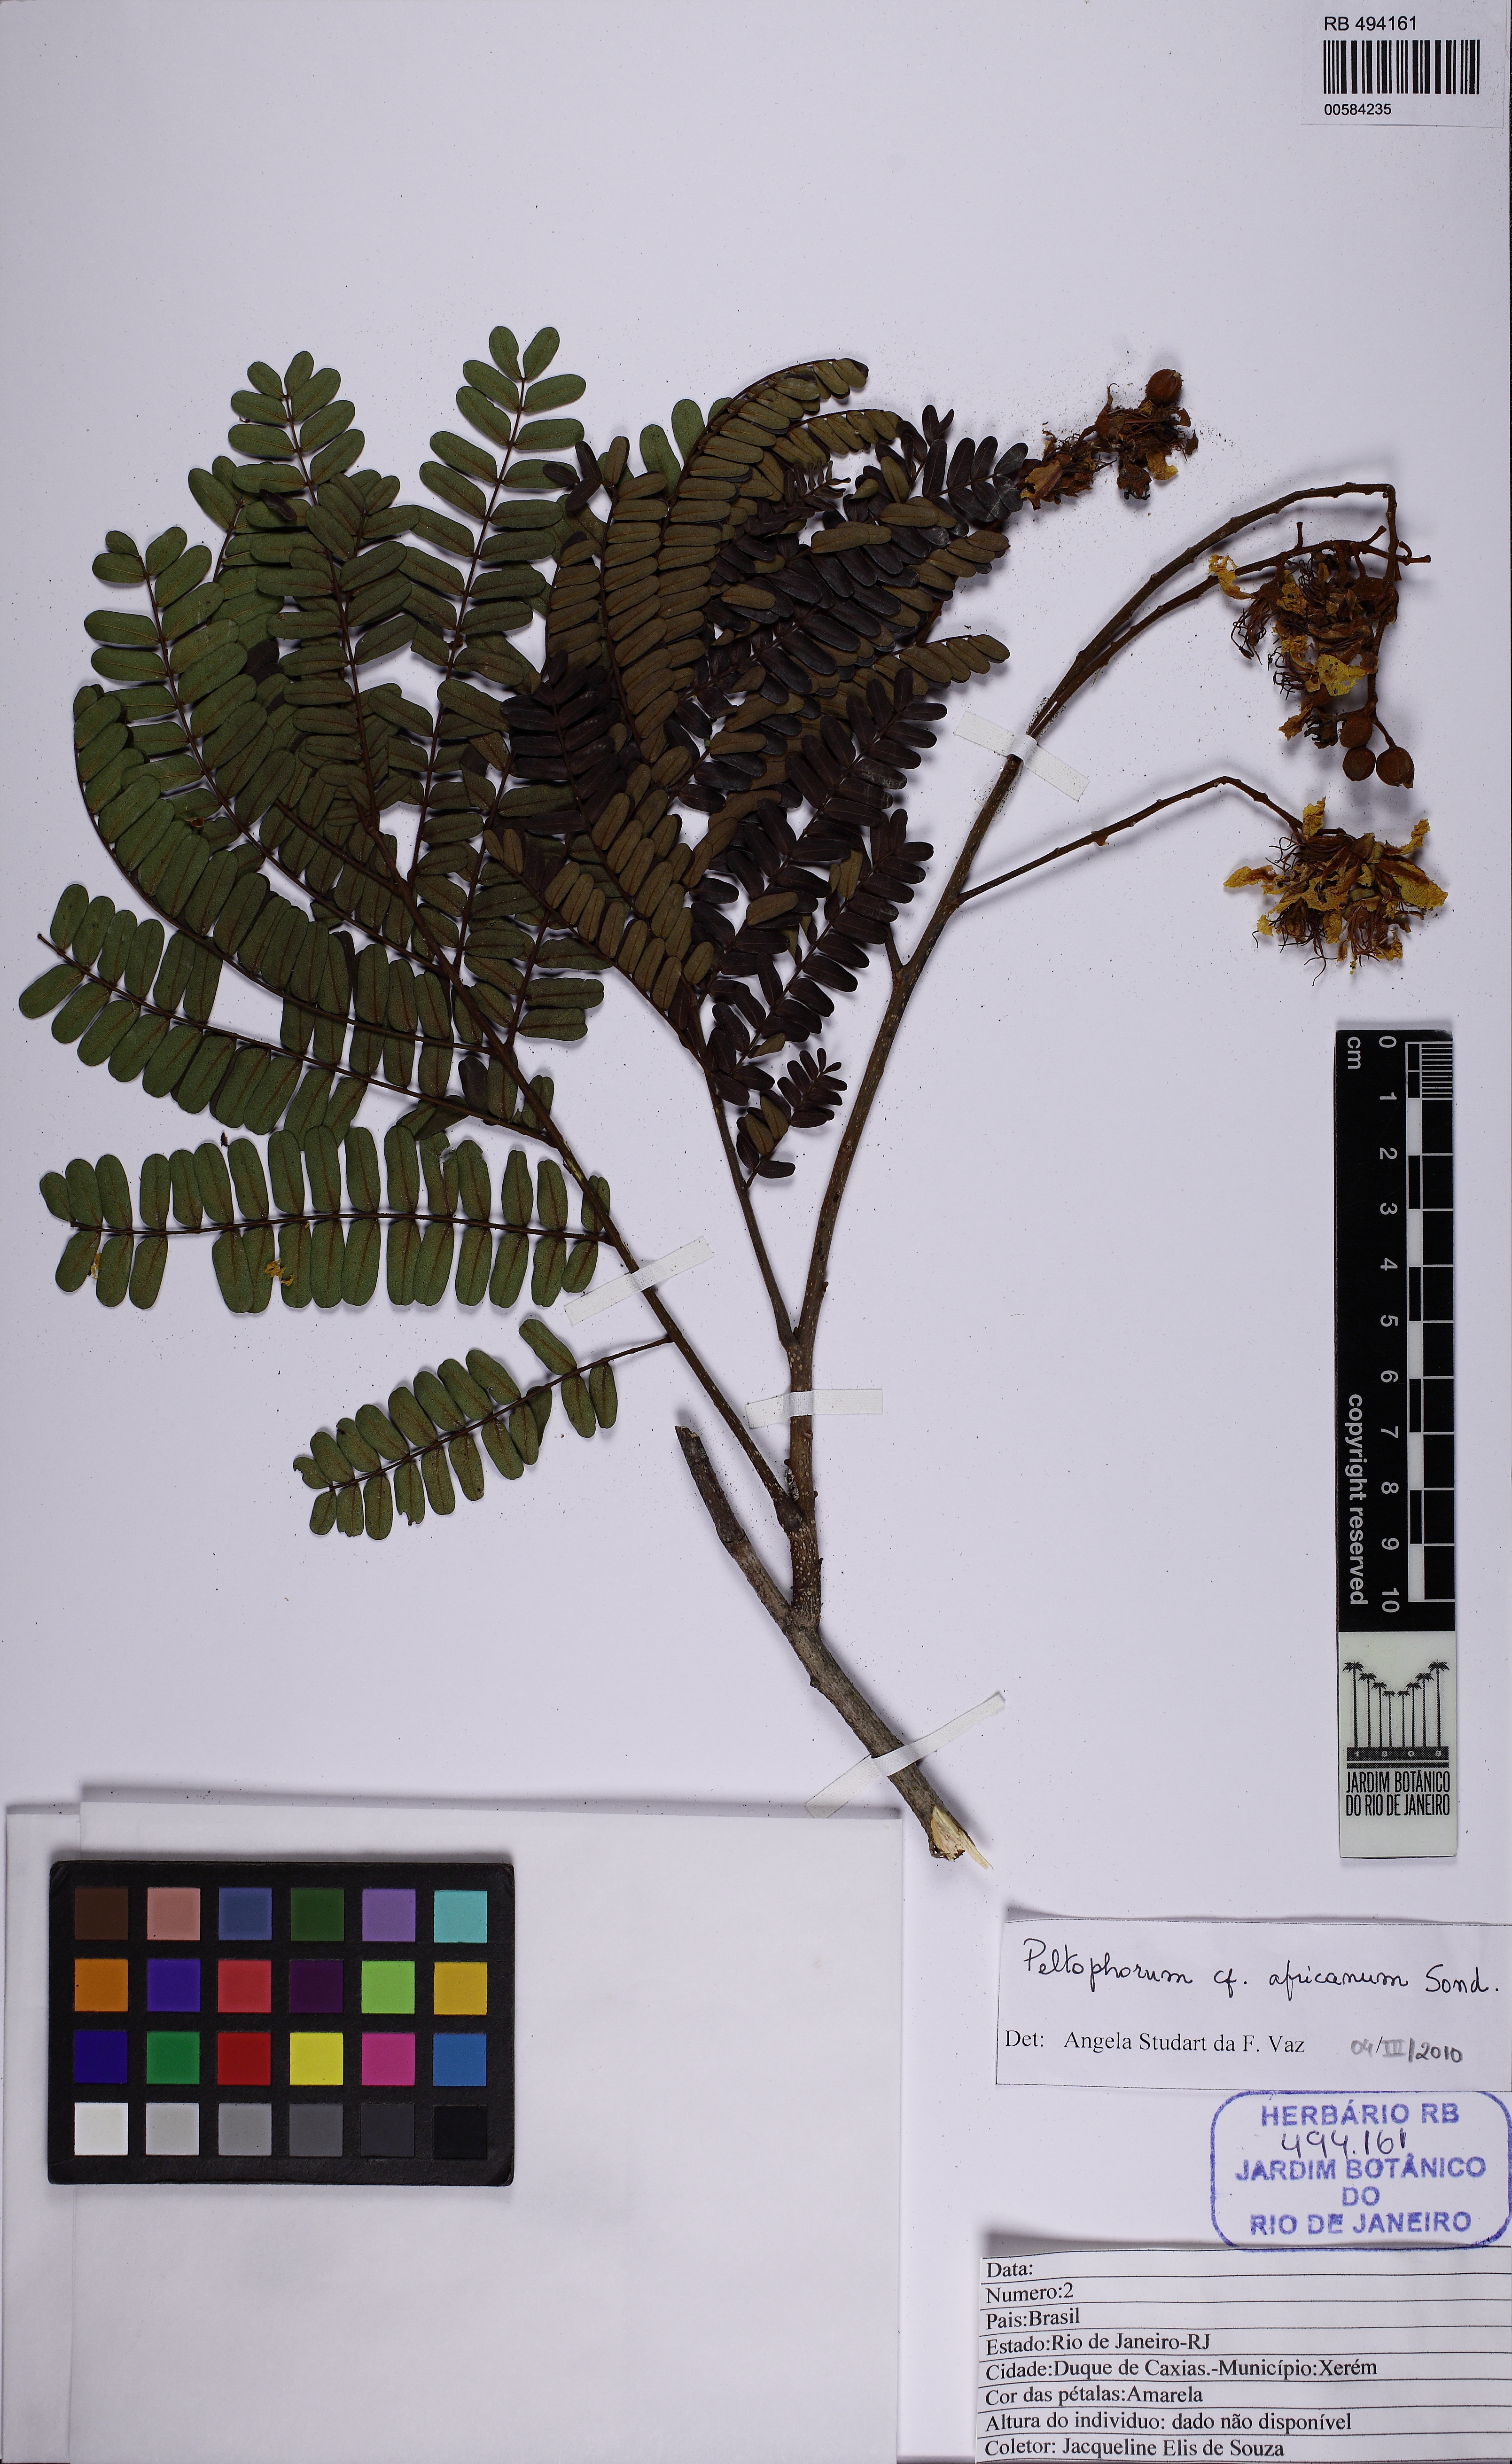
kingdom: Plantae
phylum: Tracheophyta
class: Magnoliopsida
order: Fabales
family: Fabaceae
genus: Peltophorum
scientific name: Peltophorum africanum
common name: African black wattle
